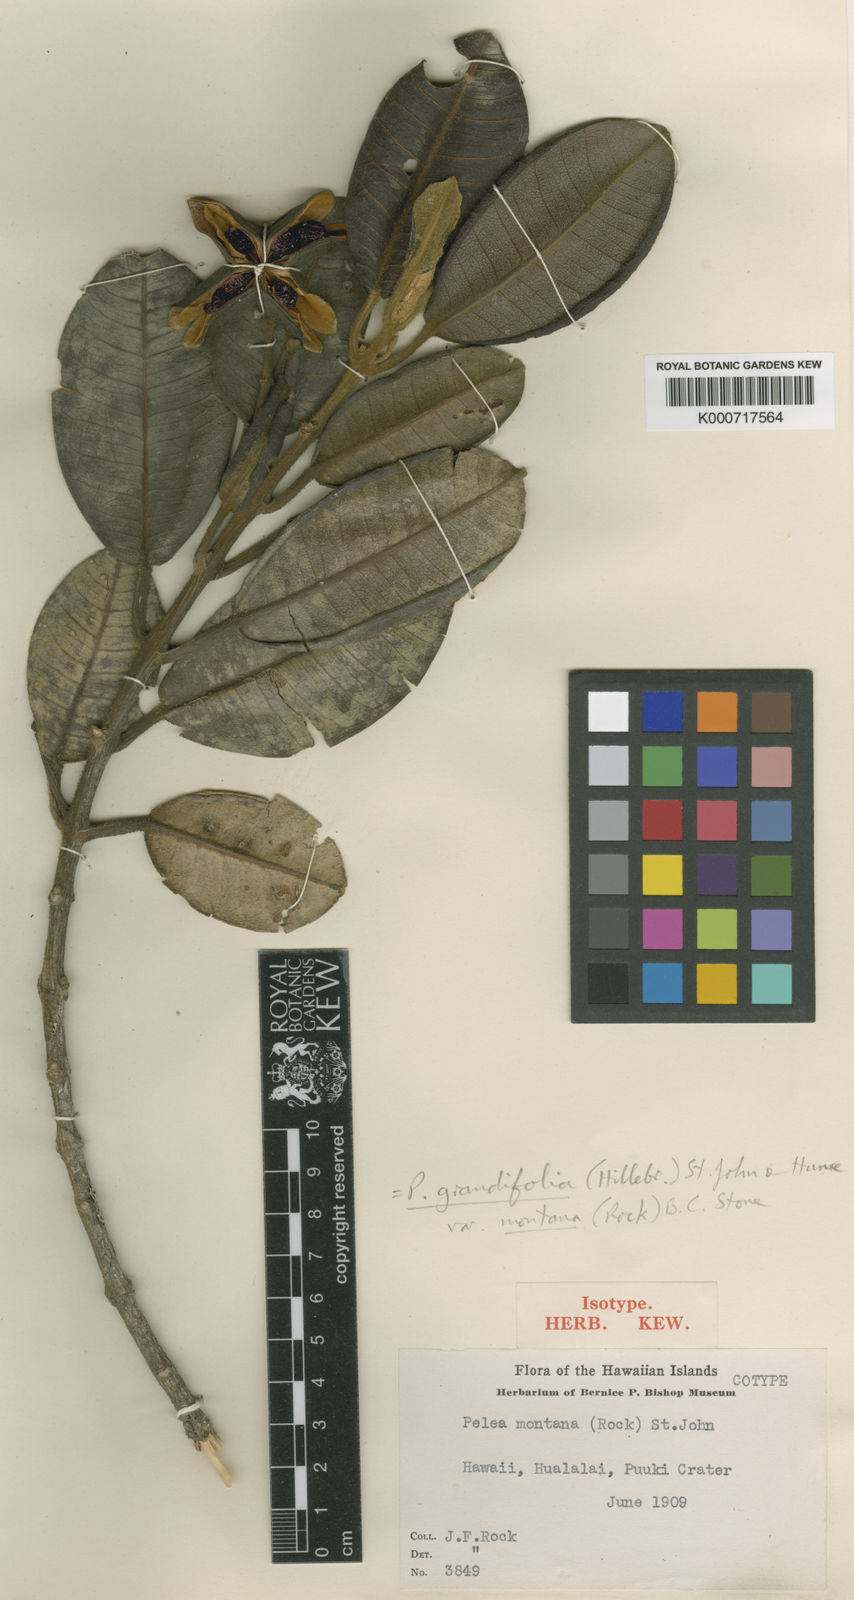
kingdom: Plantae
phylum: Tracheophyta
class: Magnoliopsida
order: Sapindales
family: Rutaceae
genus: Melicope
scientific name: Melicope volcanica
